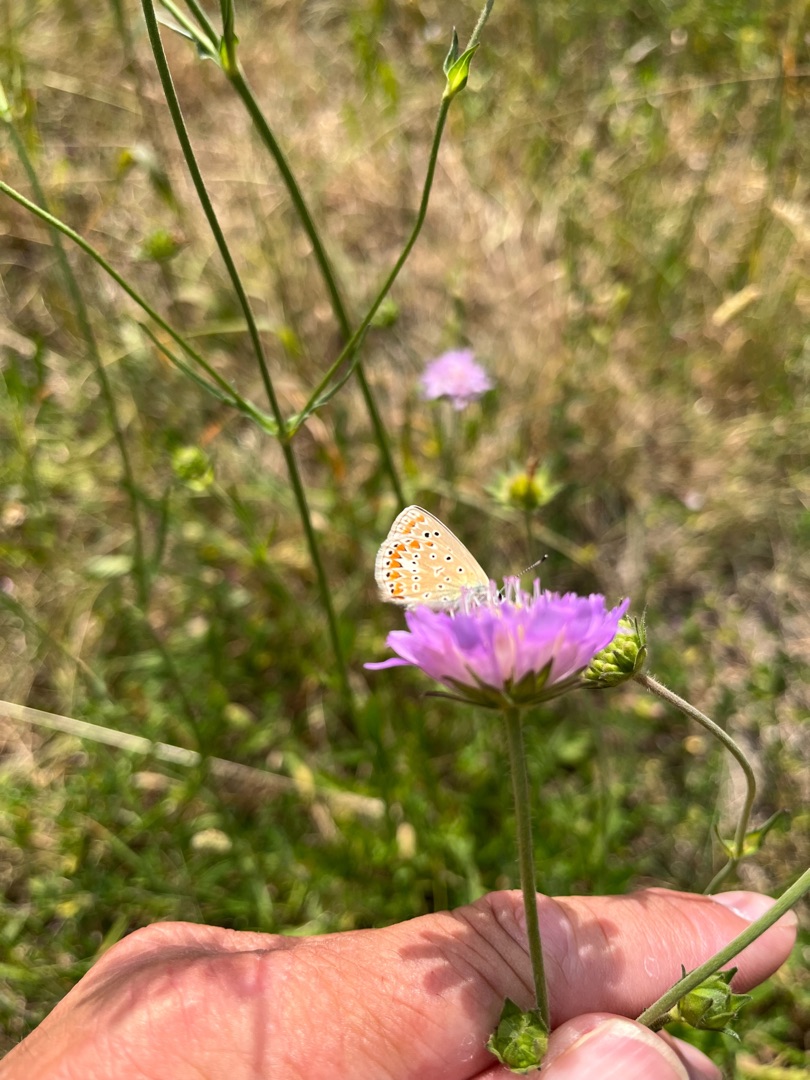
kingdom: Animalia
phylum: Arthropoda
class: Insecta
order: Lepidoptera
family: Lycaenidae
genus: Polyommatus
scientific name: Polyommatus icarus
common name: Almindelig blåfugl
